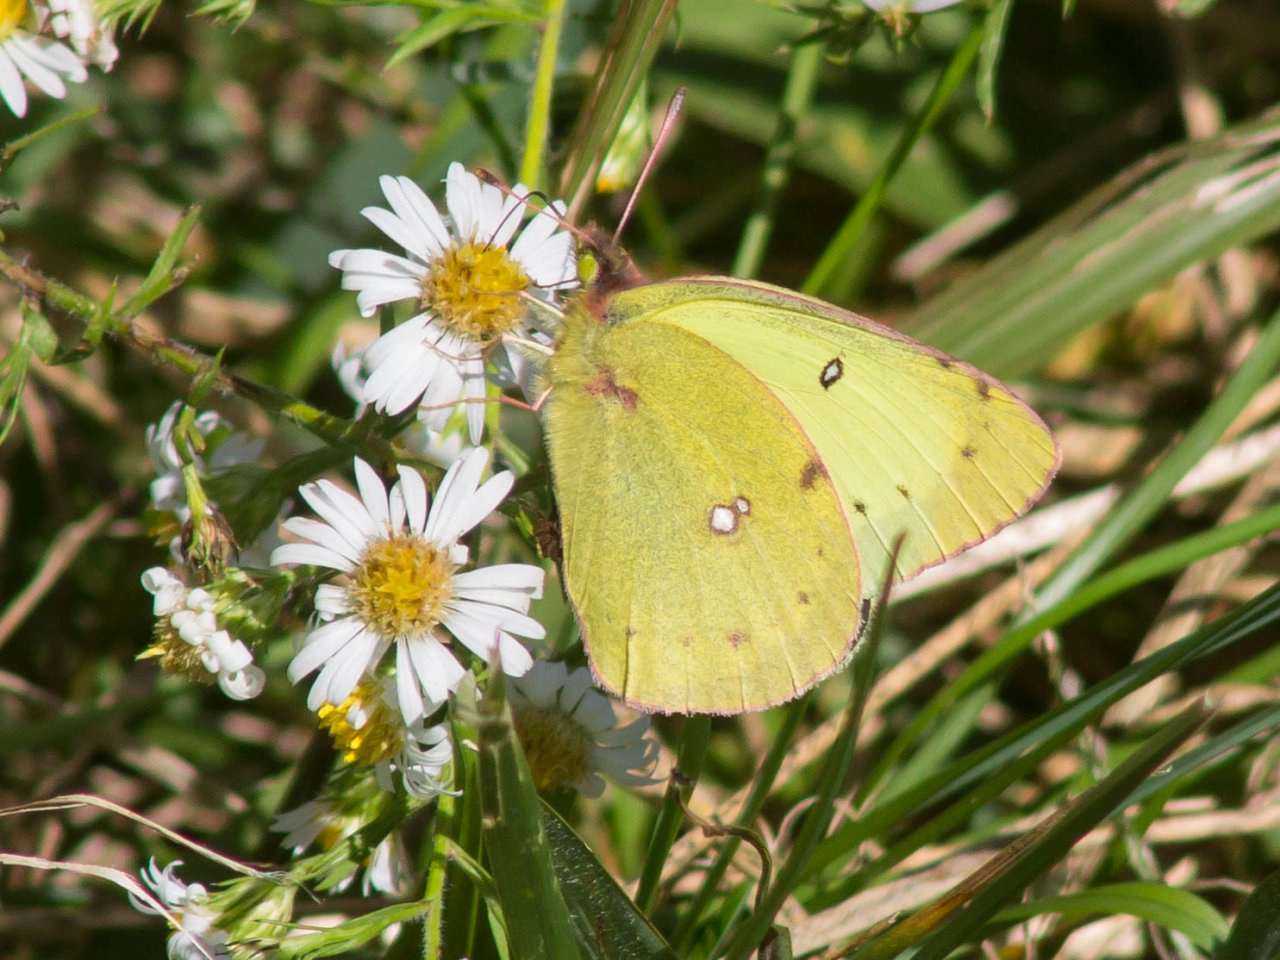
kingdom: Animalia
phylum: Arthropoda
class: Insecta
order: Lepidoptera
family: Pieridae
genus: Colias
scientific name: Colias philodice
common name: Clouded Sulphur
